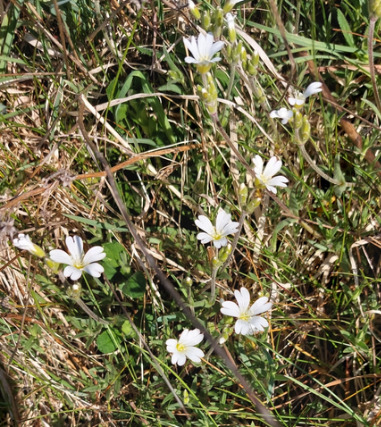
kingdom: Plantae
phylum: Tracheophyta
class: Magnoliopsida
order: Caryophyllales
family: Caryophyllaceae
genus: Cerastium
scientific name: Cerastium arvense
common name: Storblomstret hønsetarm
